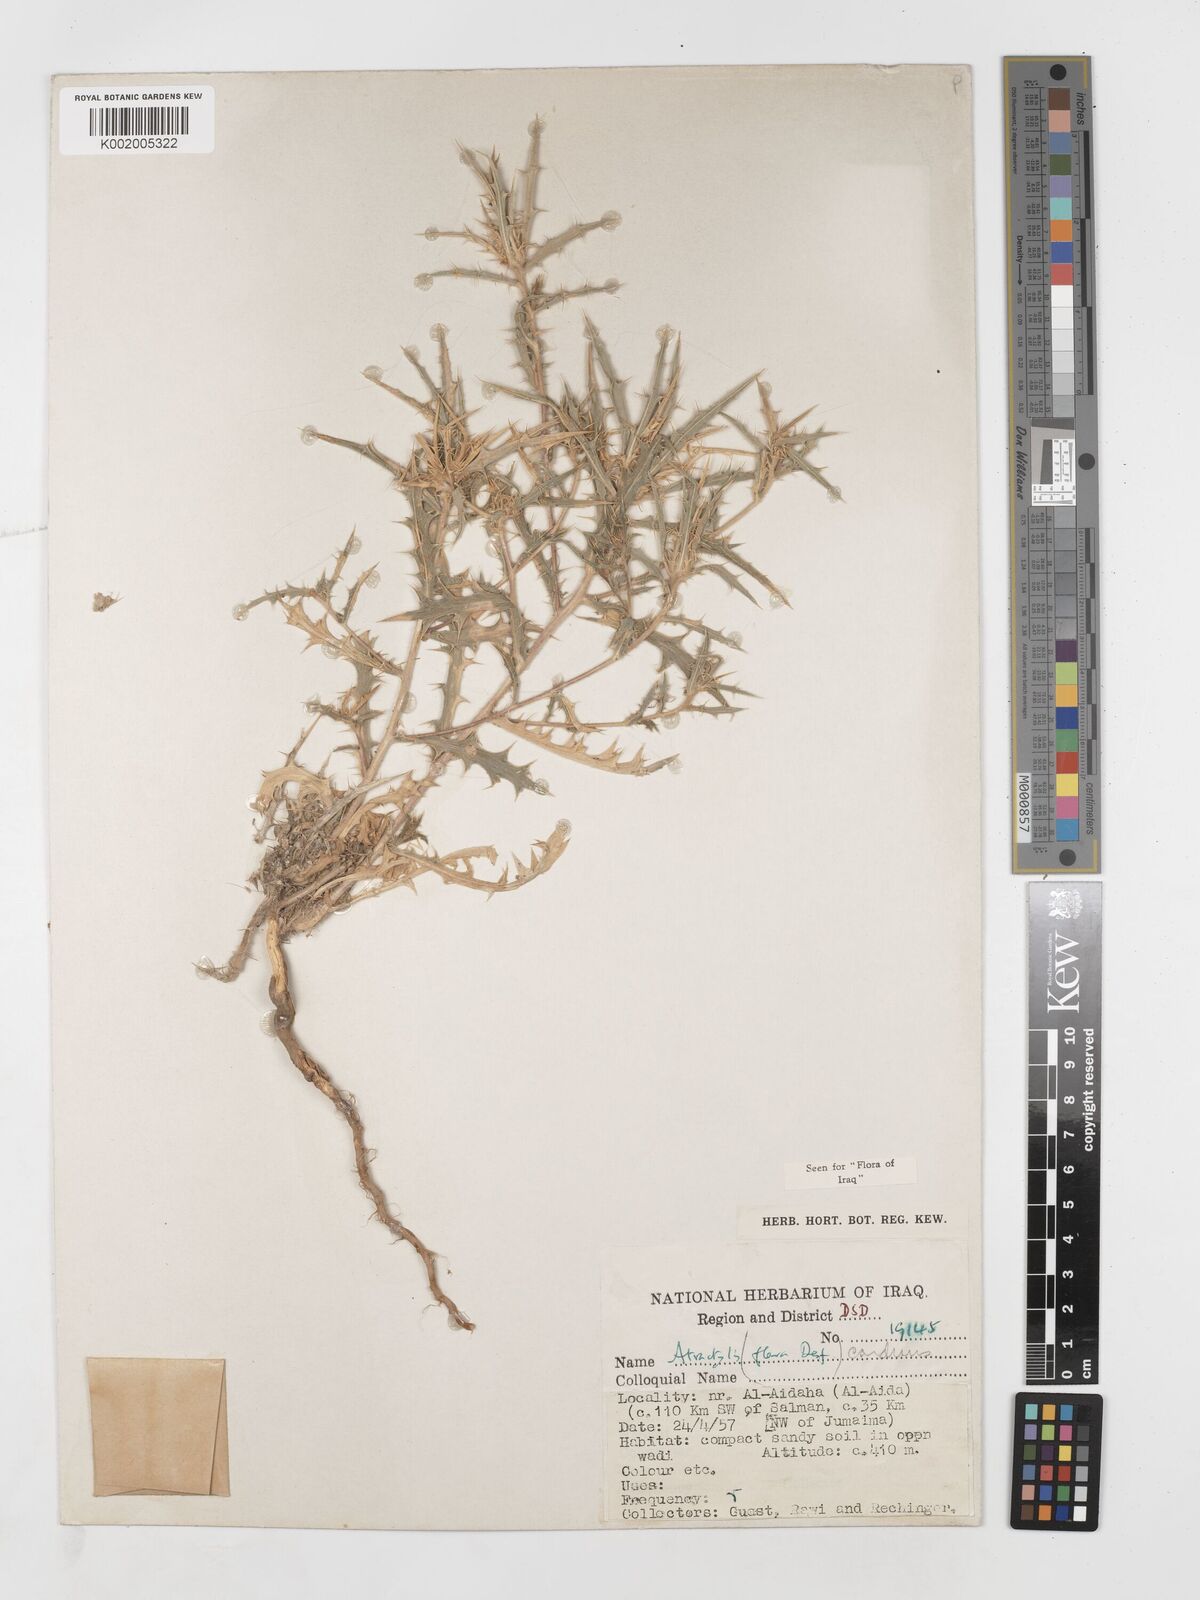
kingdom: Plantae
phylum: Tracheophyta
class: Magnoliopsida
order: Asterales
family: Asteraceae
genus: Atractylis
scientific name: Atractylis carduus
